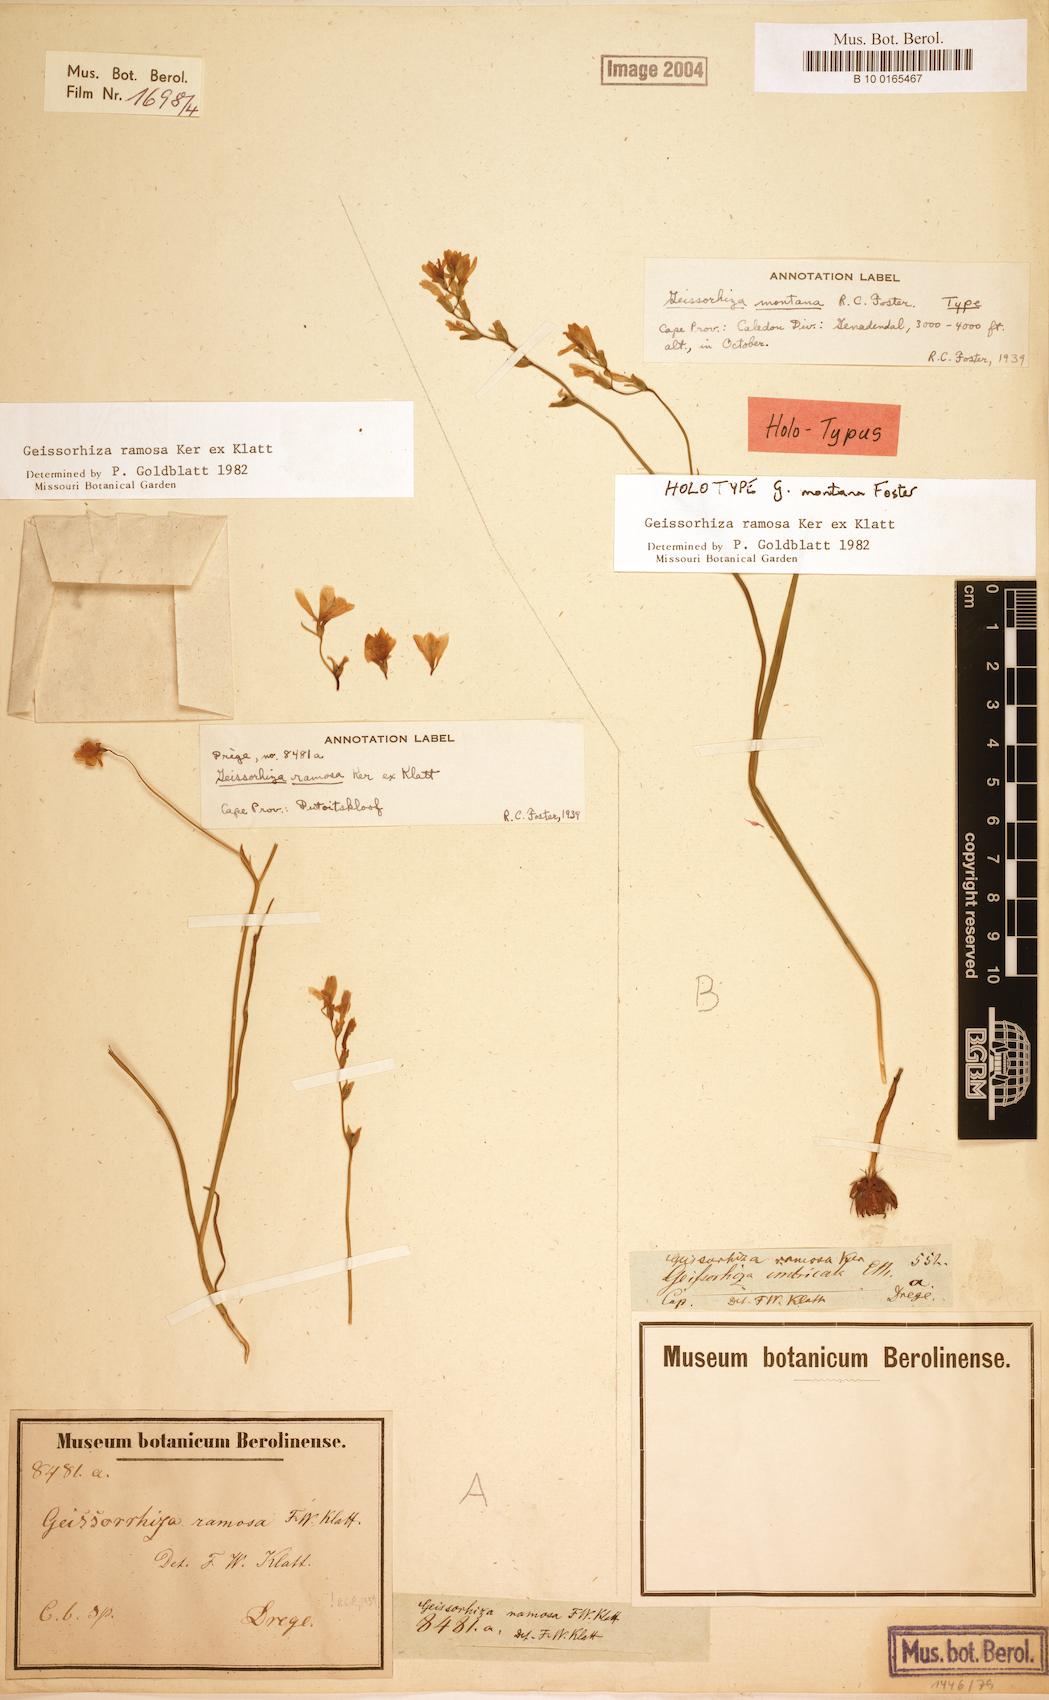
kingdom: Plantae
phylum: Tracheophyta
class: Liliopsida
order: Asparagales
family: Iridaceae
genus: Geissorhiza
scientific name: Geissorhiza ramosa
